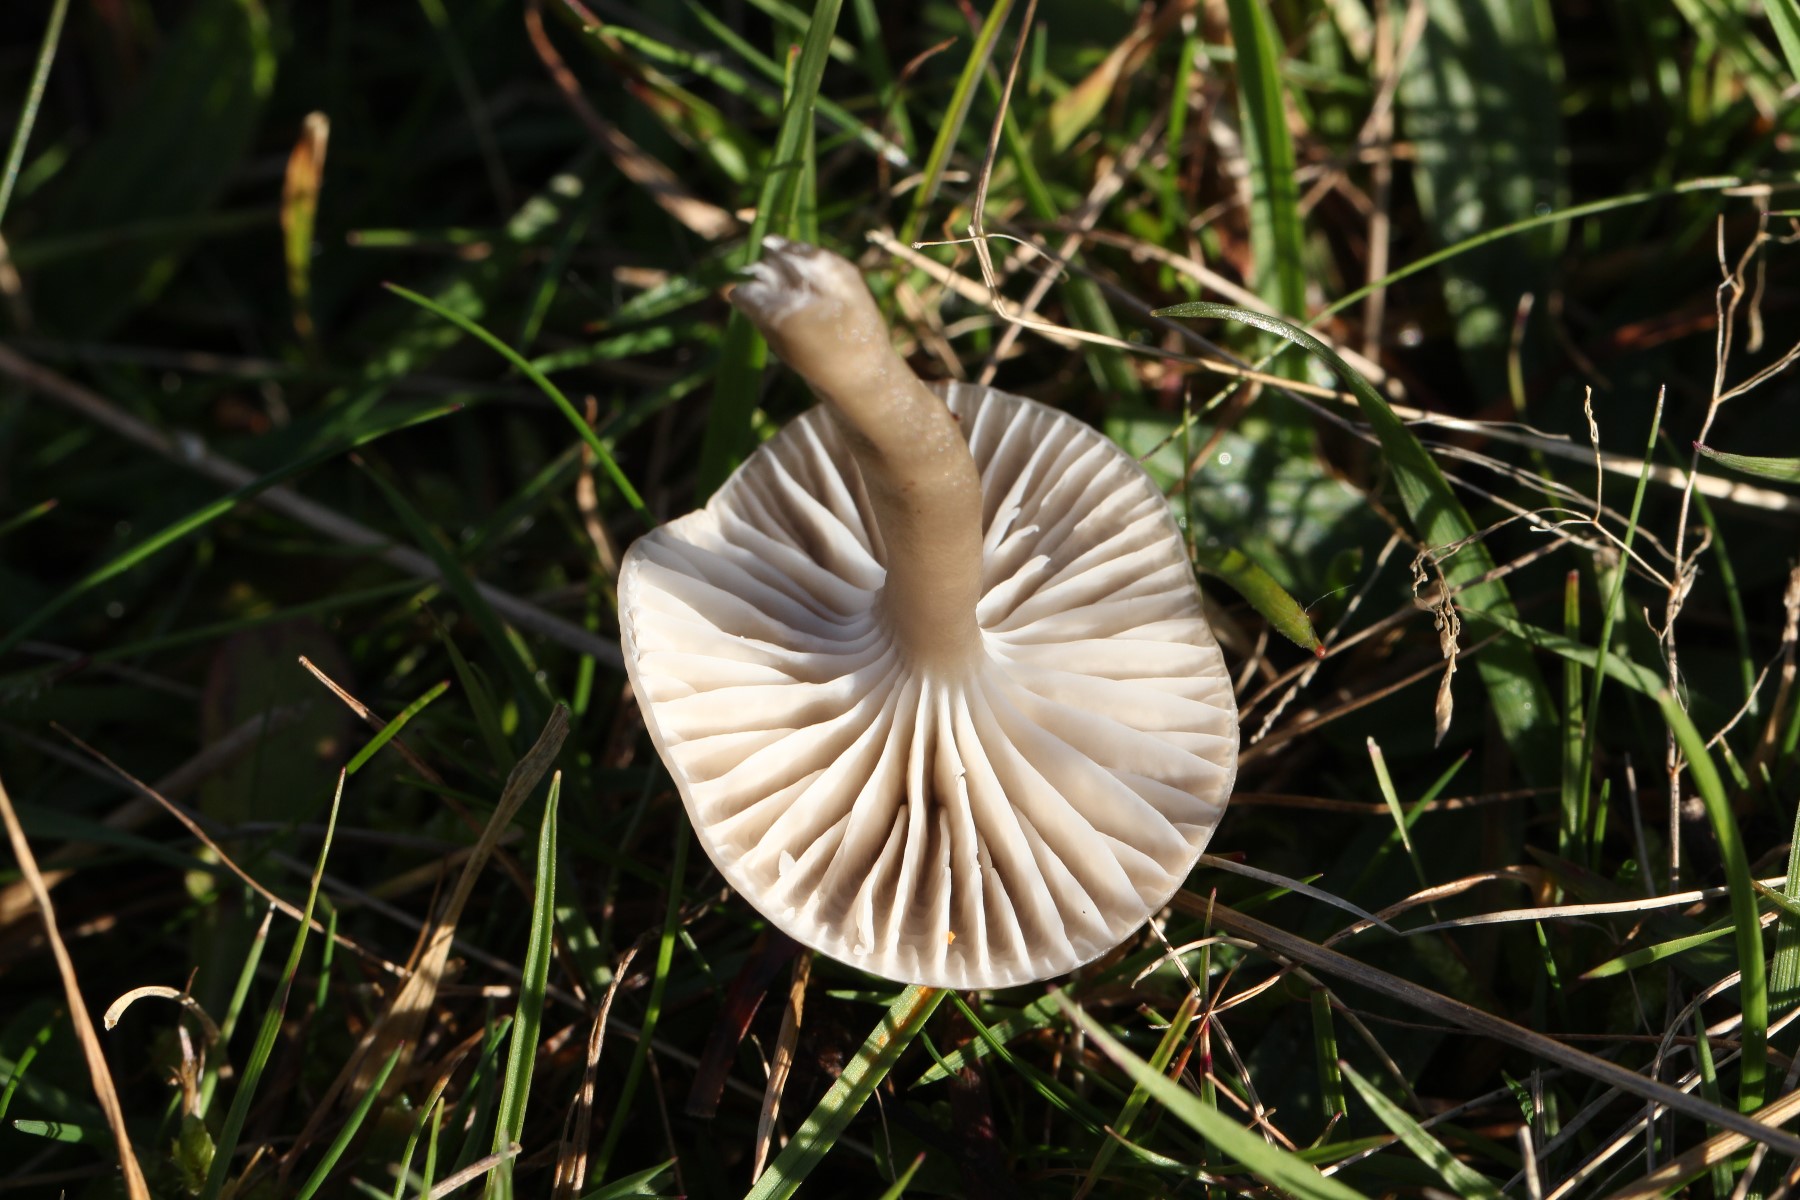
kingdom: Fungi
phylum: Basidiomycota
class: Agaricomycetes
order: Agaricales
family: Hygrophoraceae
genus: Gliophorus
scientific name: Gliophorus irrigatus
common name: slimet vokshat
